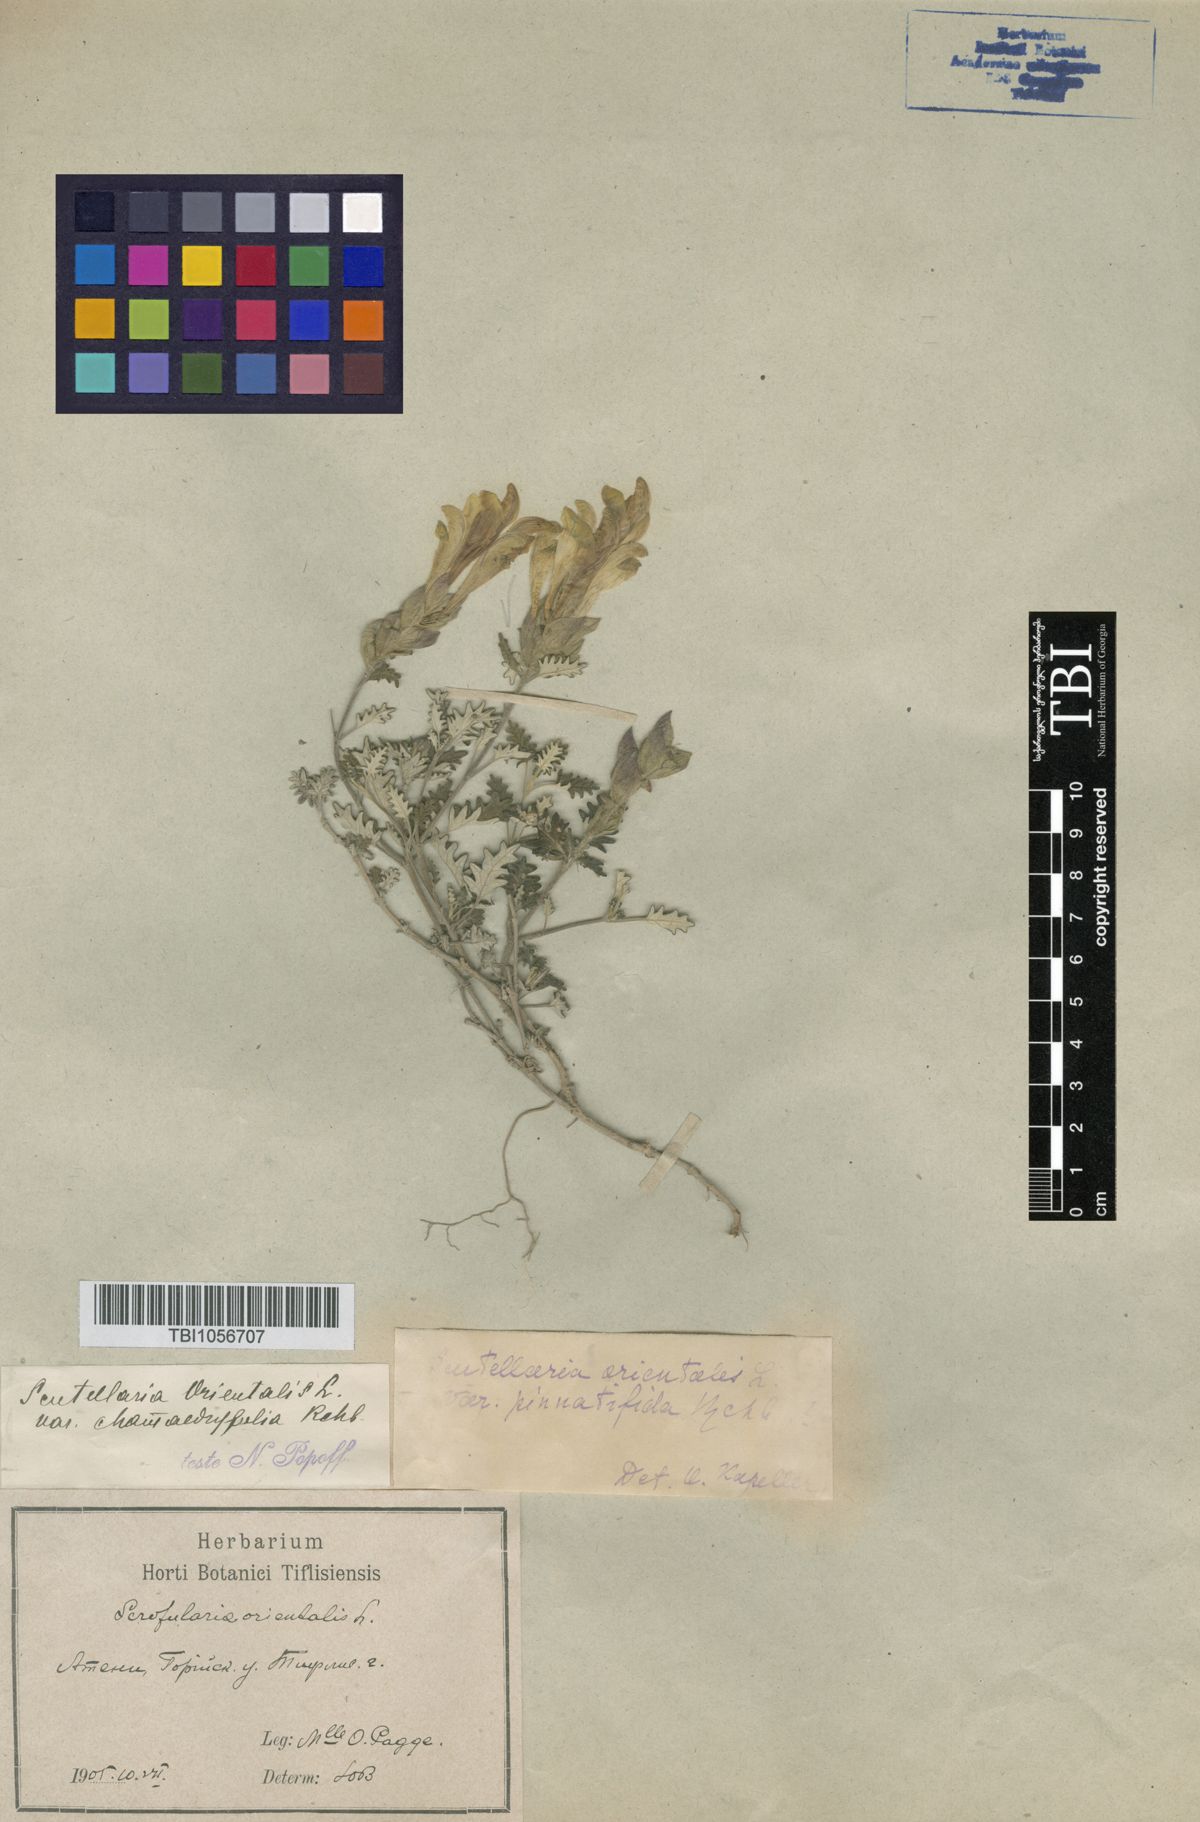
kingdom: Plantae
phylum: Tracheophyta
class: Magnoliopsida
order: Lamiales
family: Lamiaceae
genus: Scutellaria
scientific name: Scutellaria orientalis
